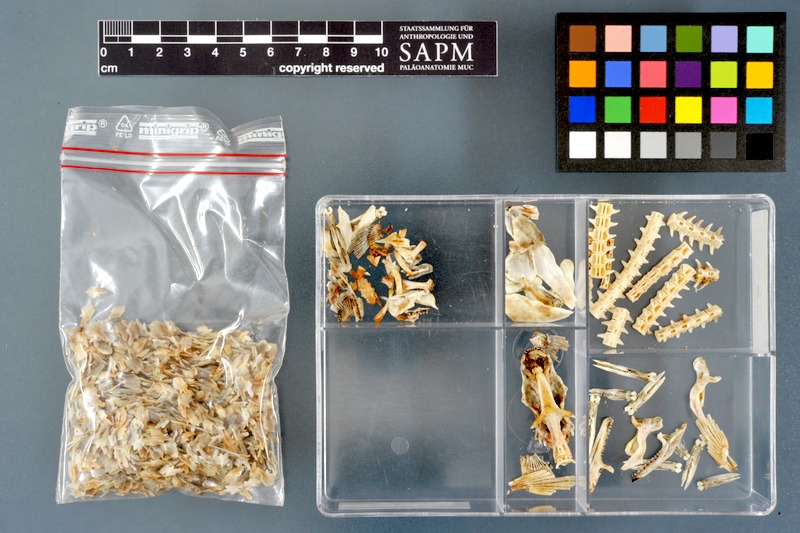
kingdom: Animalia
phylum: Chordata
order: Polypteriformes
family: Polypteridae
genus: Polypterus
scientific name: Polypterus senegalus
